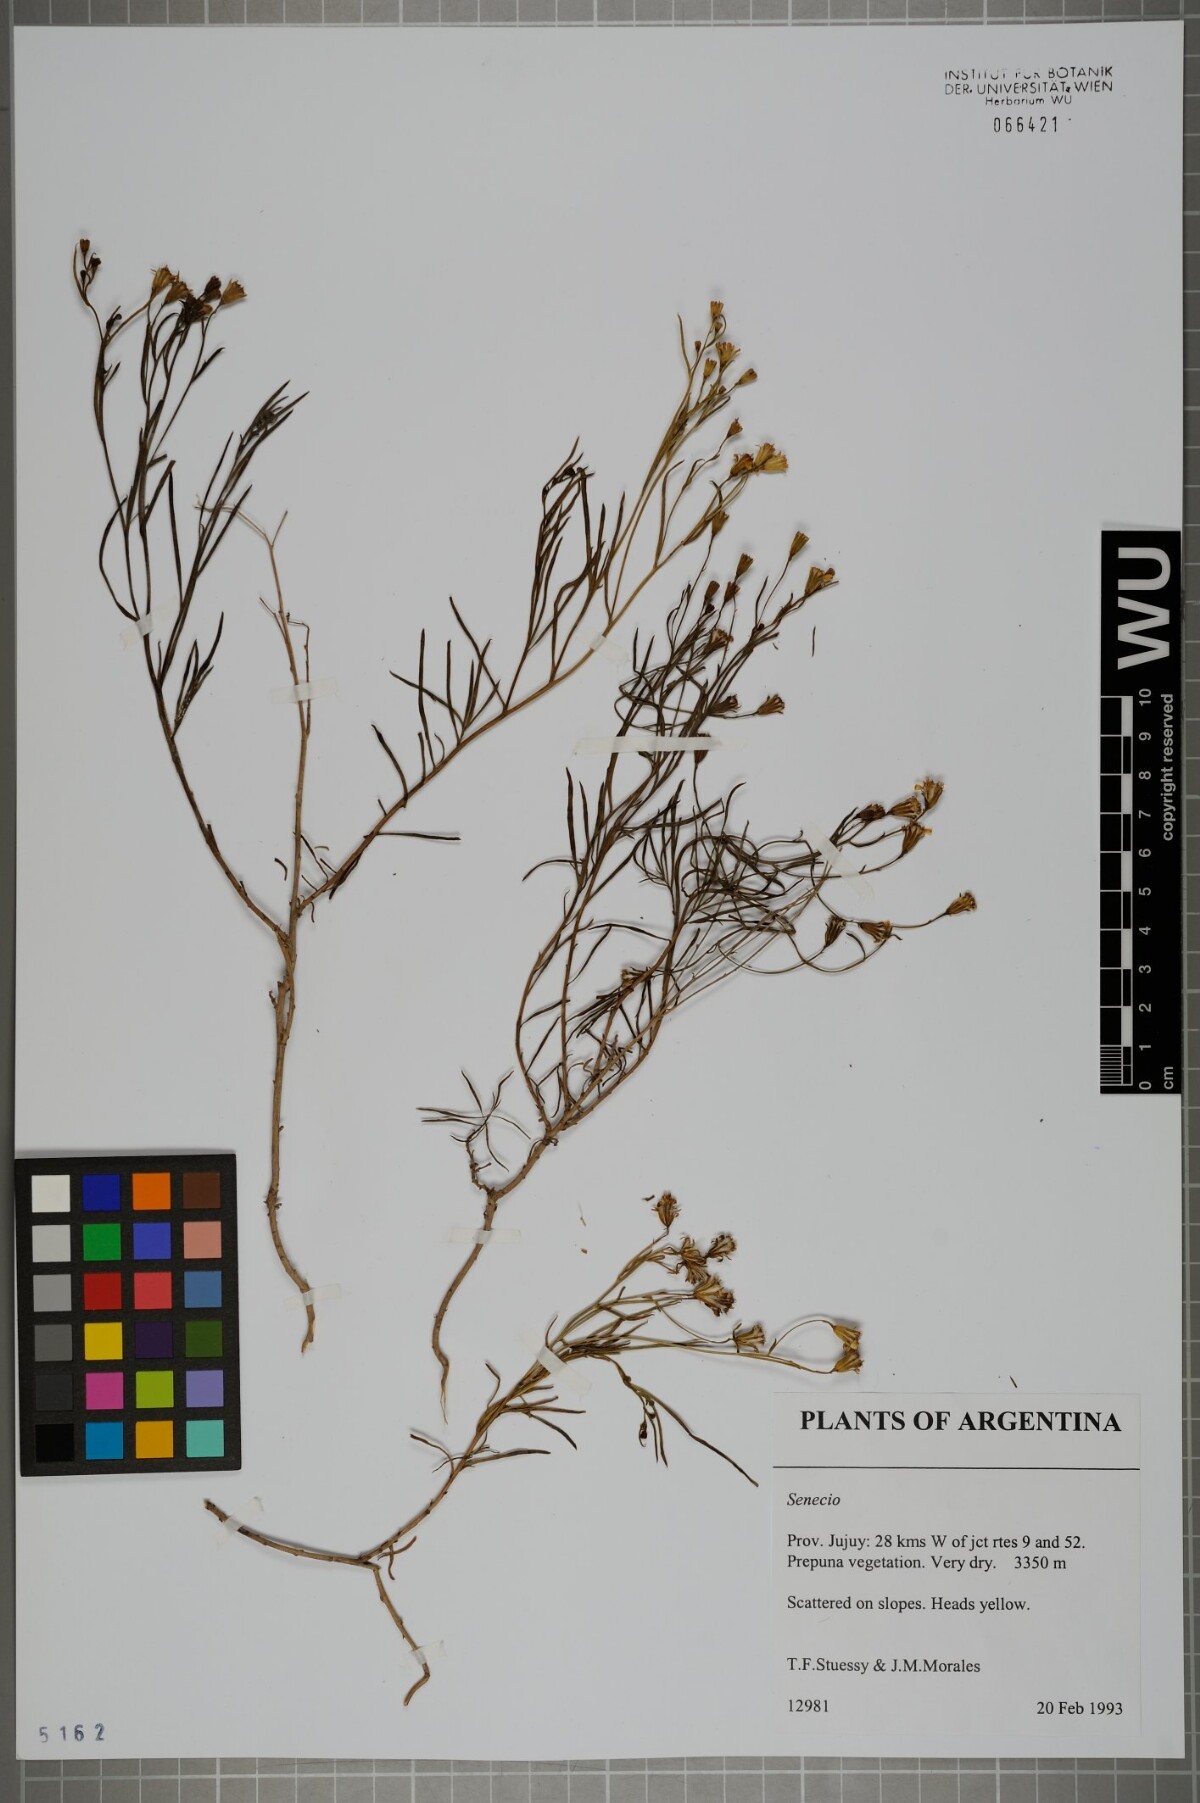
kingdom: Plantae
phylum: Tracheophyta
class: Magnoliopsida
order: Asterales
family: Asteraceae
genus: Senecio
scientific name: Senecio
